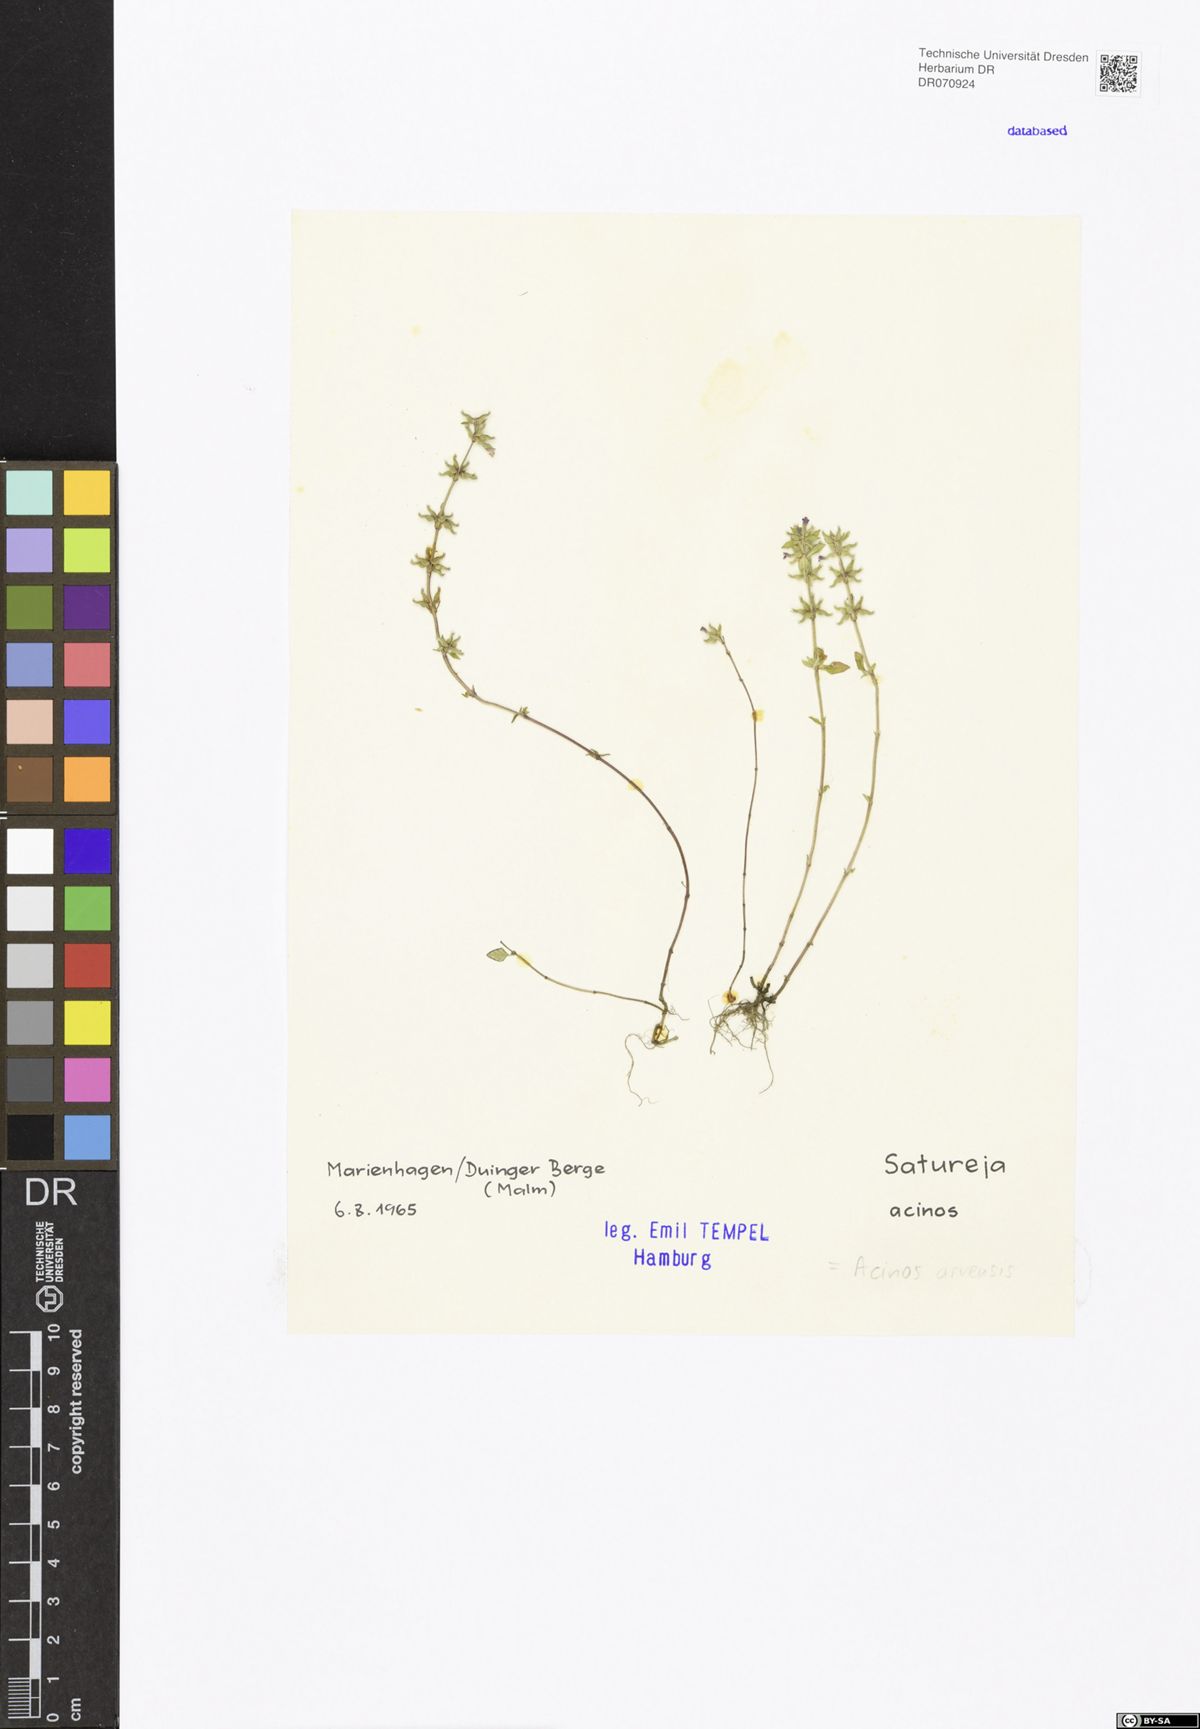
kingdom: Plantae
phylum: Tracheophyta
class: Magnoliopsida
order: Lamiales
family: Lamiaceae
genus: Clinopodium
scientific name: Clinopodium acinos
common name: Basil thyme
